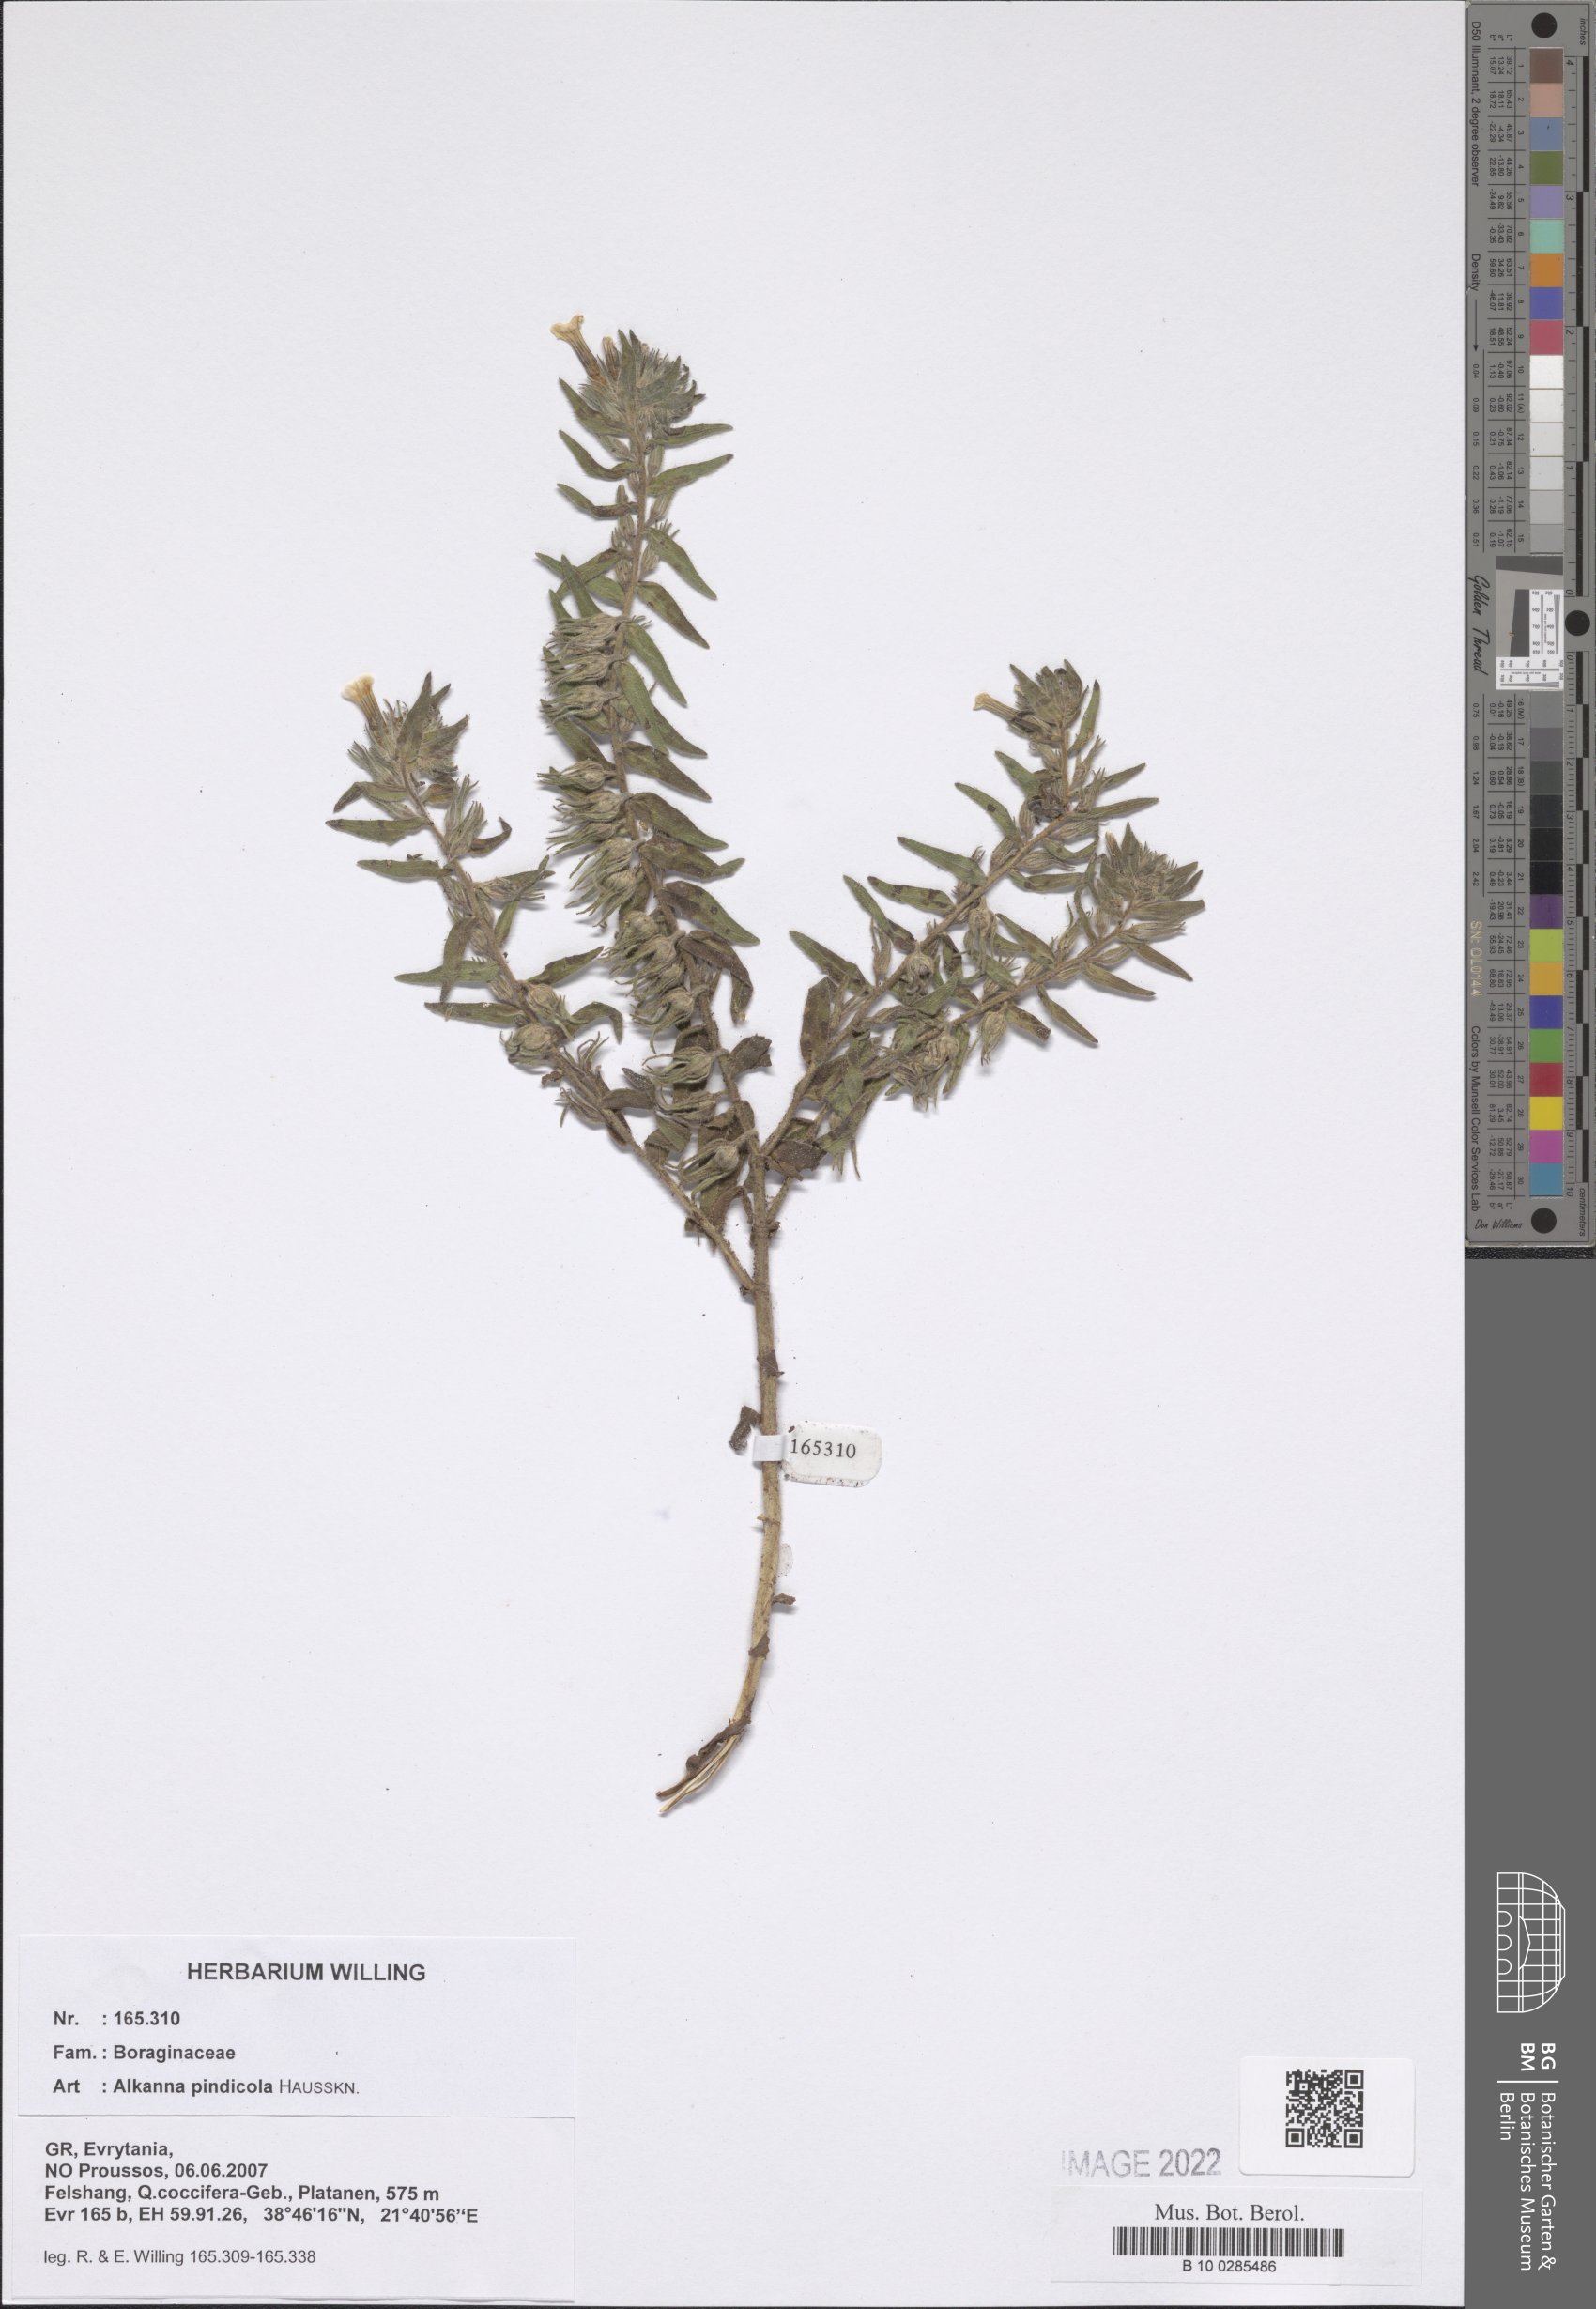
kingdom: Plantae
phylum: Tracheophyta
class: Magnoliopsida
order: Boraginales
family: Boraginaceae
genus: Alkanna
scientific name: Alkanna pindicola
